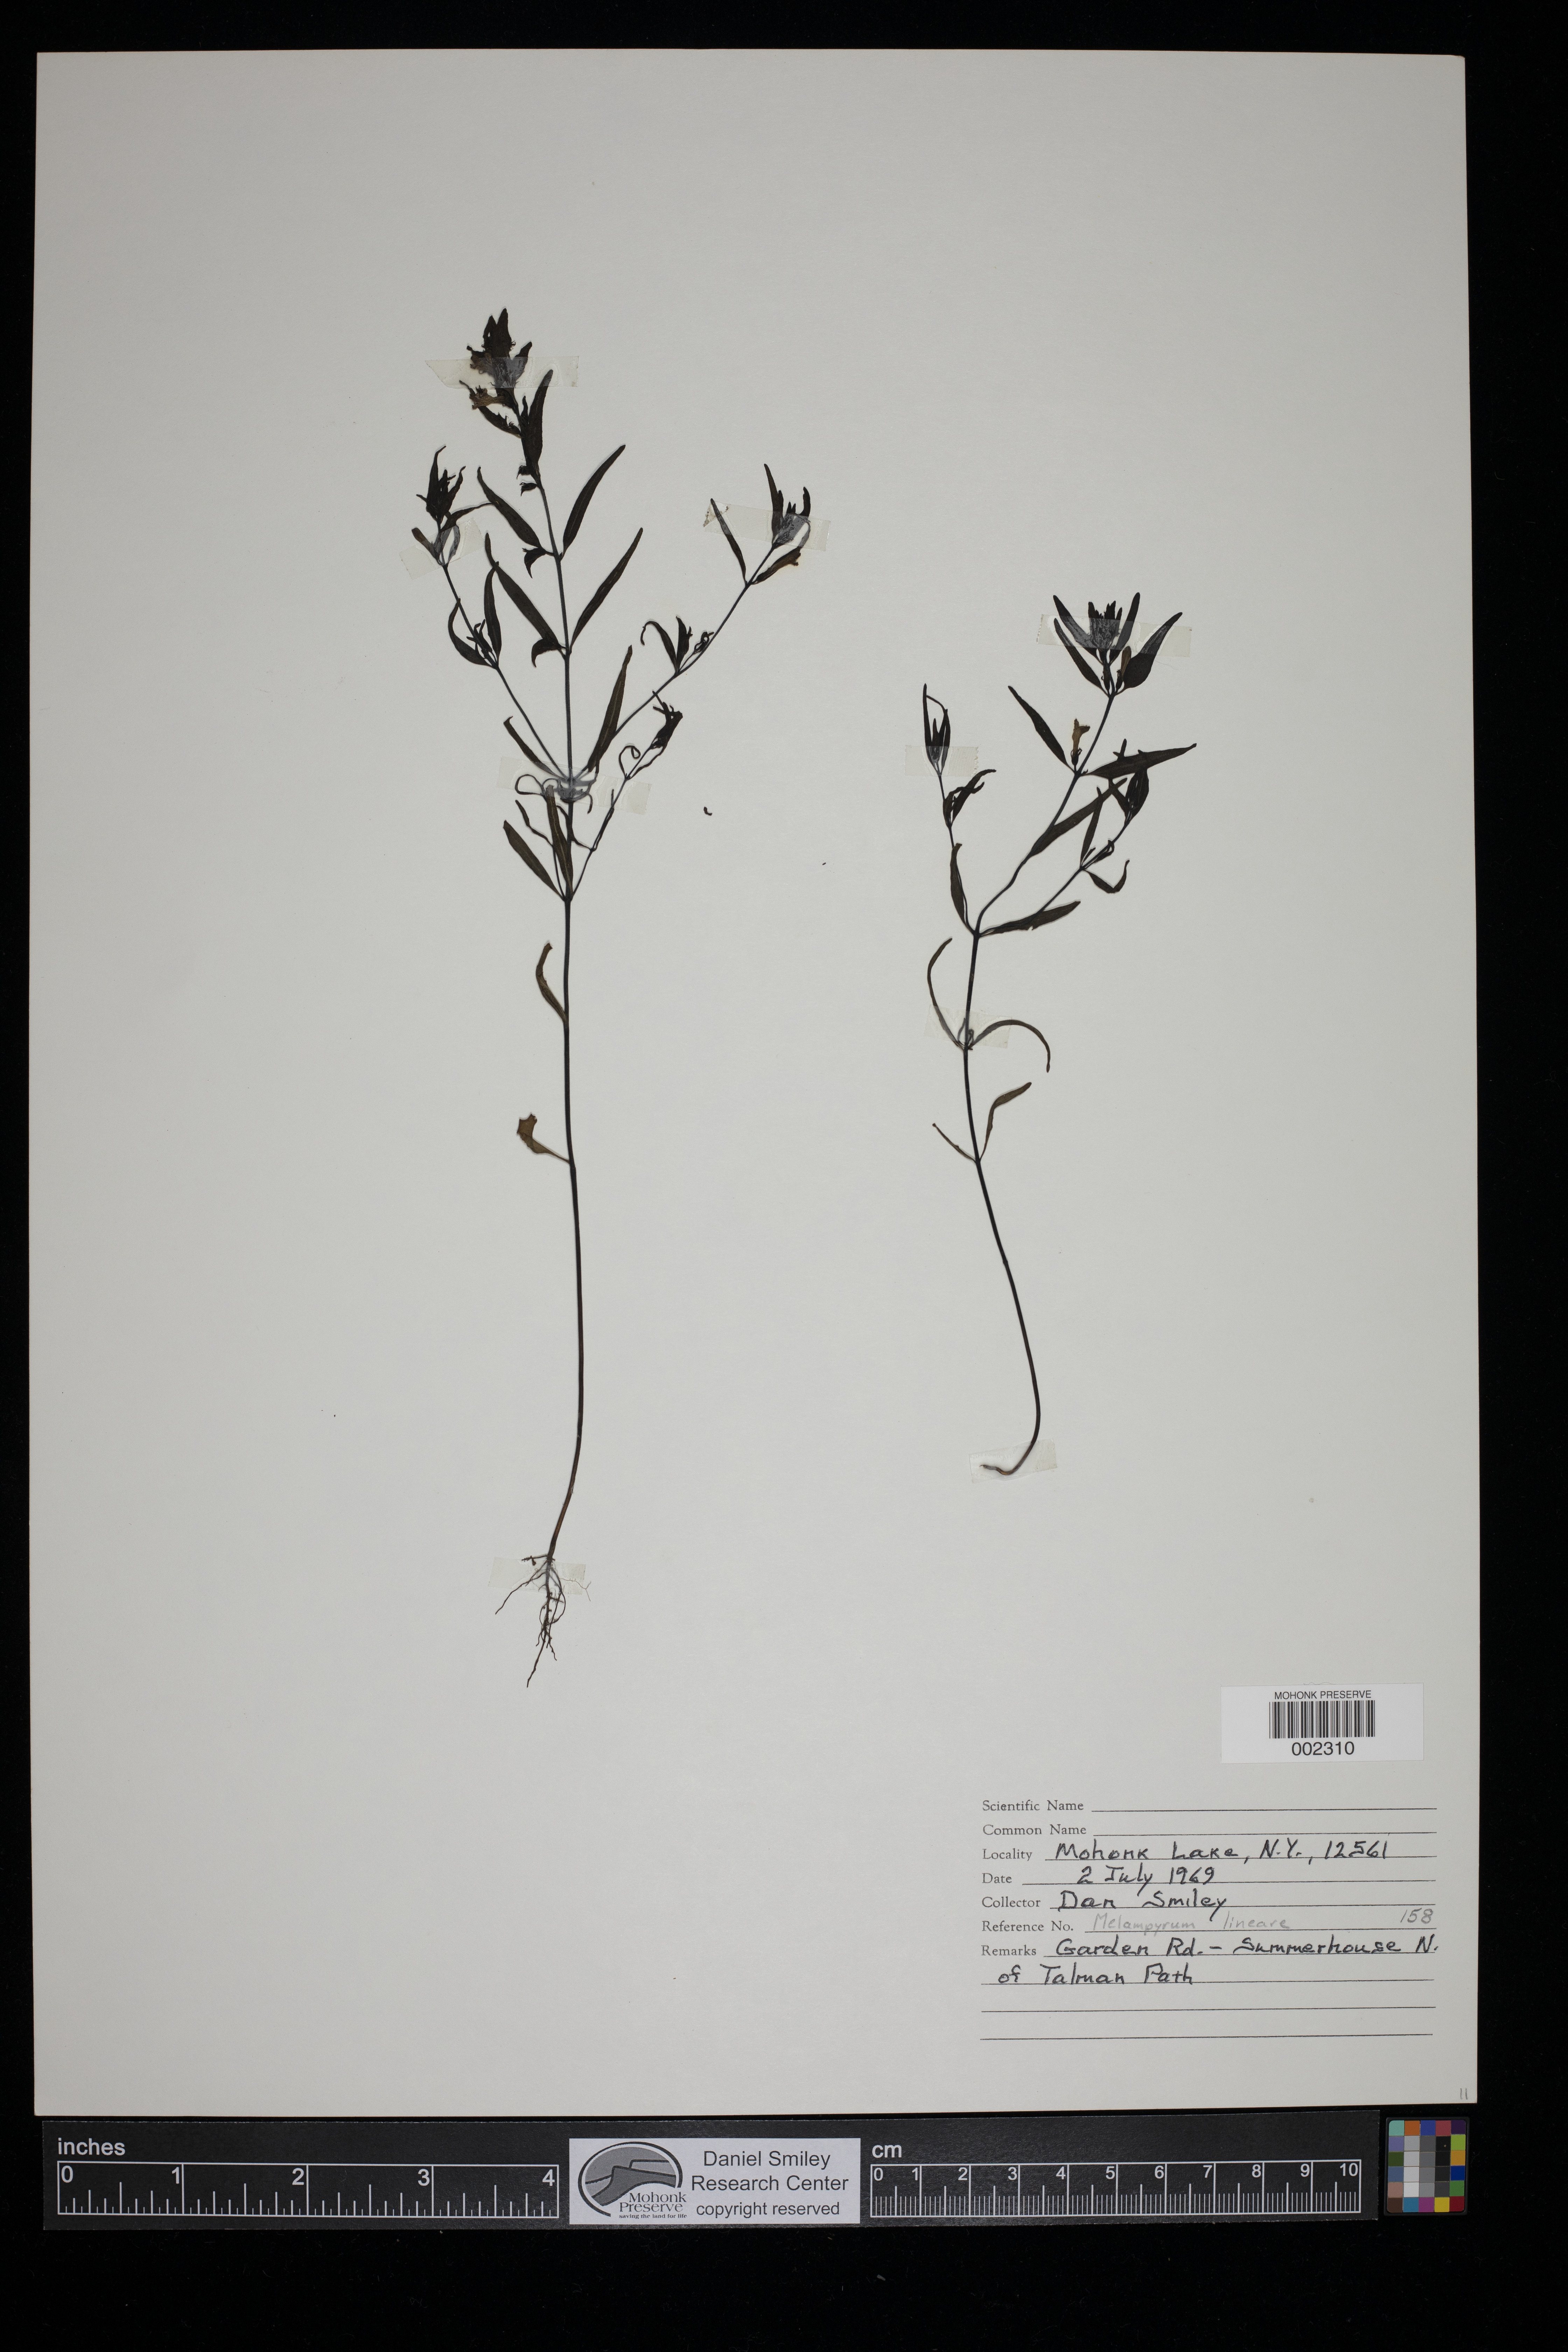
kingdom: Plantae
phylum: Tracheophyta
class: Magnoliopsida
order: Lamiales
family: Orobanchaceae
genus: Melampyrum
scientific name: Melampyrum lineare
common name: American cow-wheat
